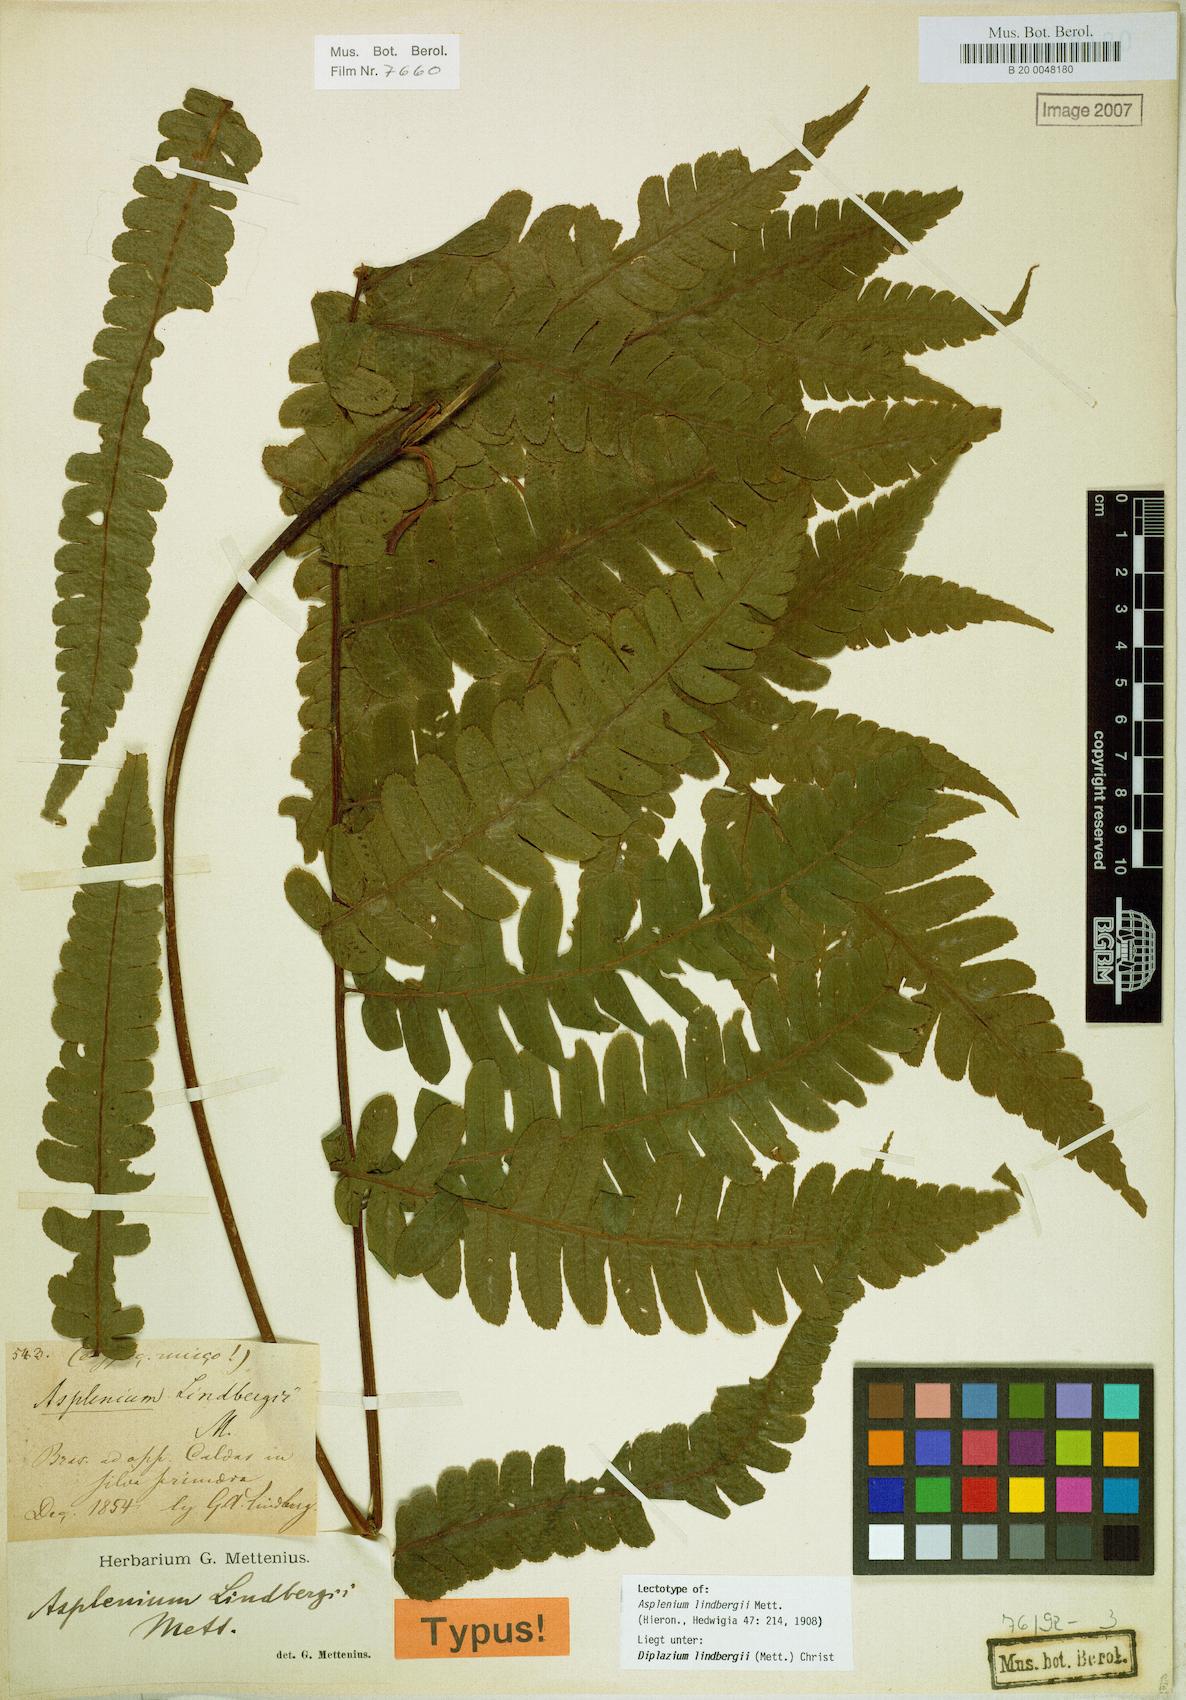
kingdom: Plantae
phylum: Tracheophyta
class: Polypodiopsida
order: Polypodiales
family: Athyriaceae
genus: Diplazium
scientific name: Diplazium lindbergii
